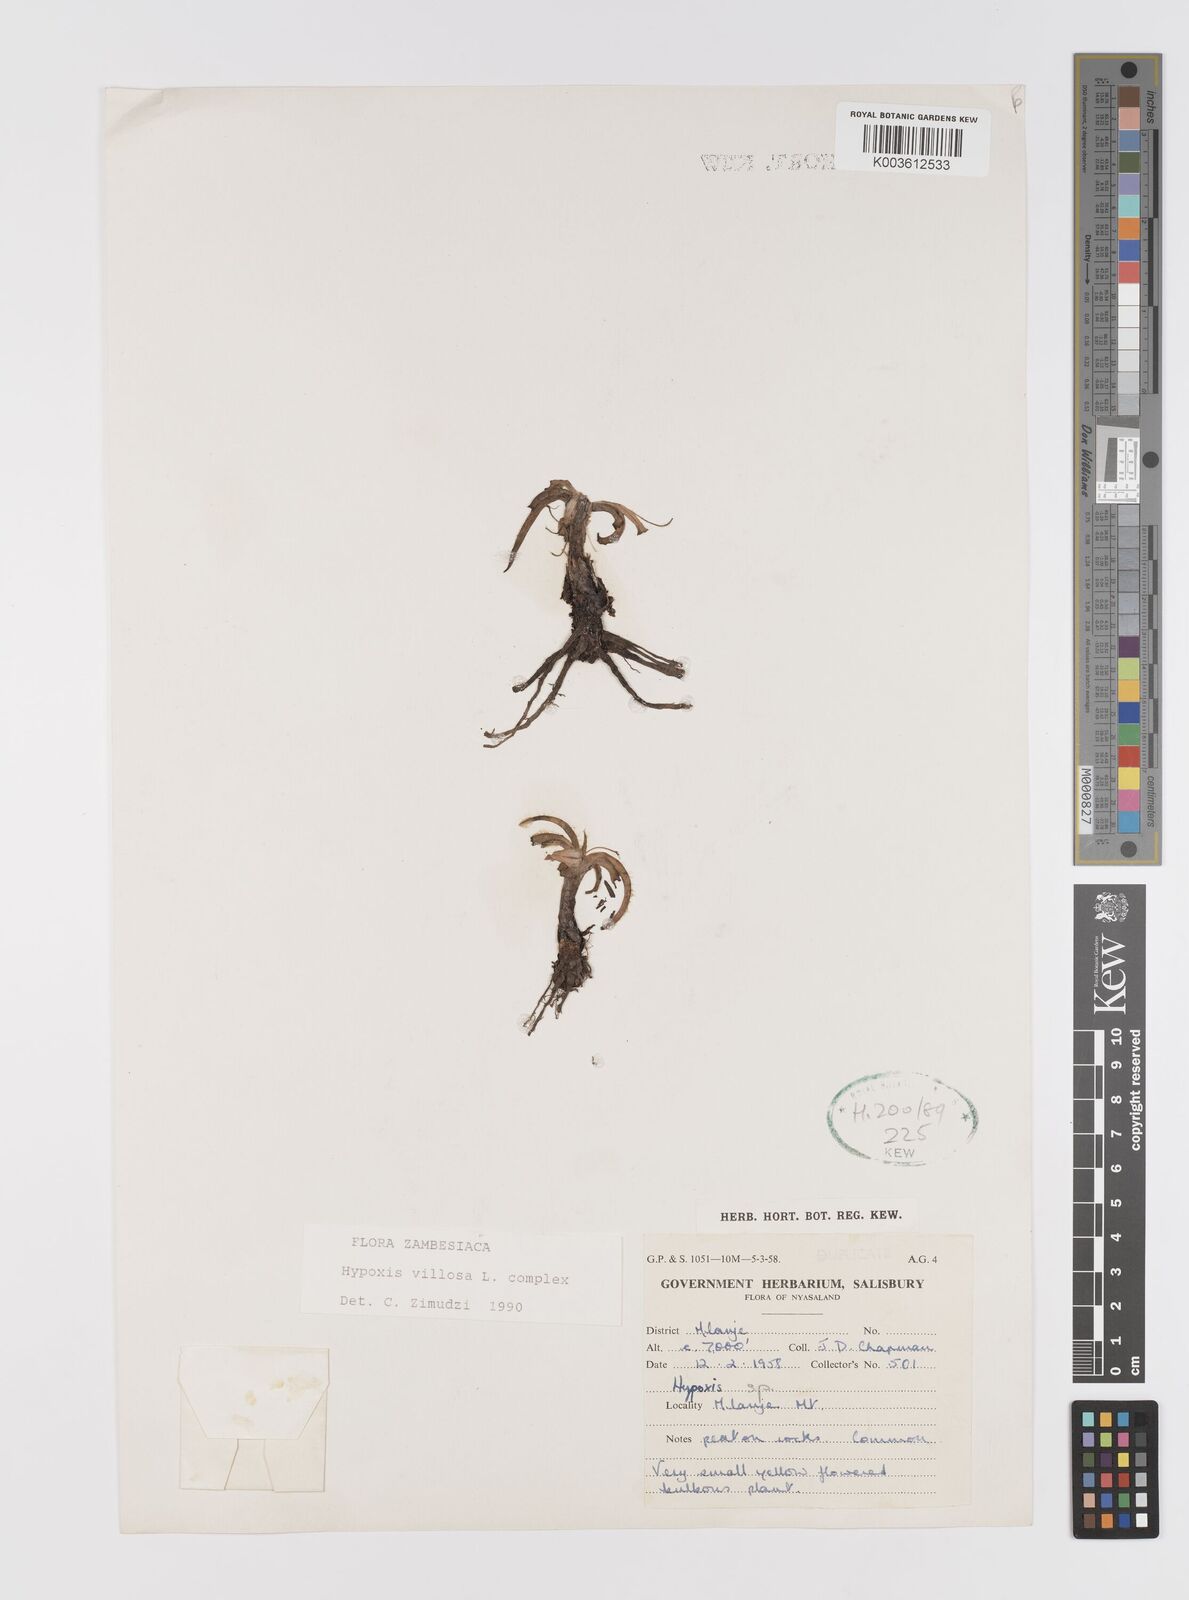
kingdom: Plantae
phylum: Tracheophyta
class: Liliopsida
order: Asparagales
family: Hypoxidaceae
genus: Hypoxis
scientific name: Hypoxis parvifolia
